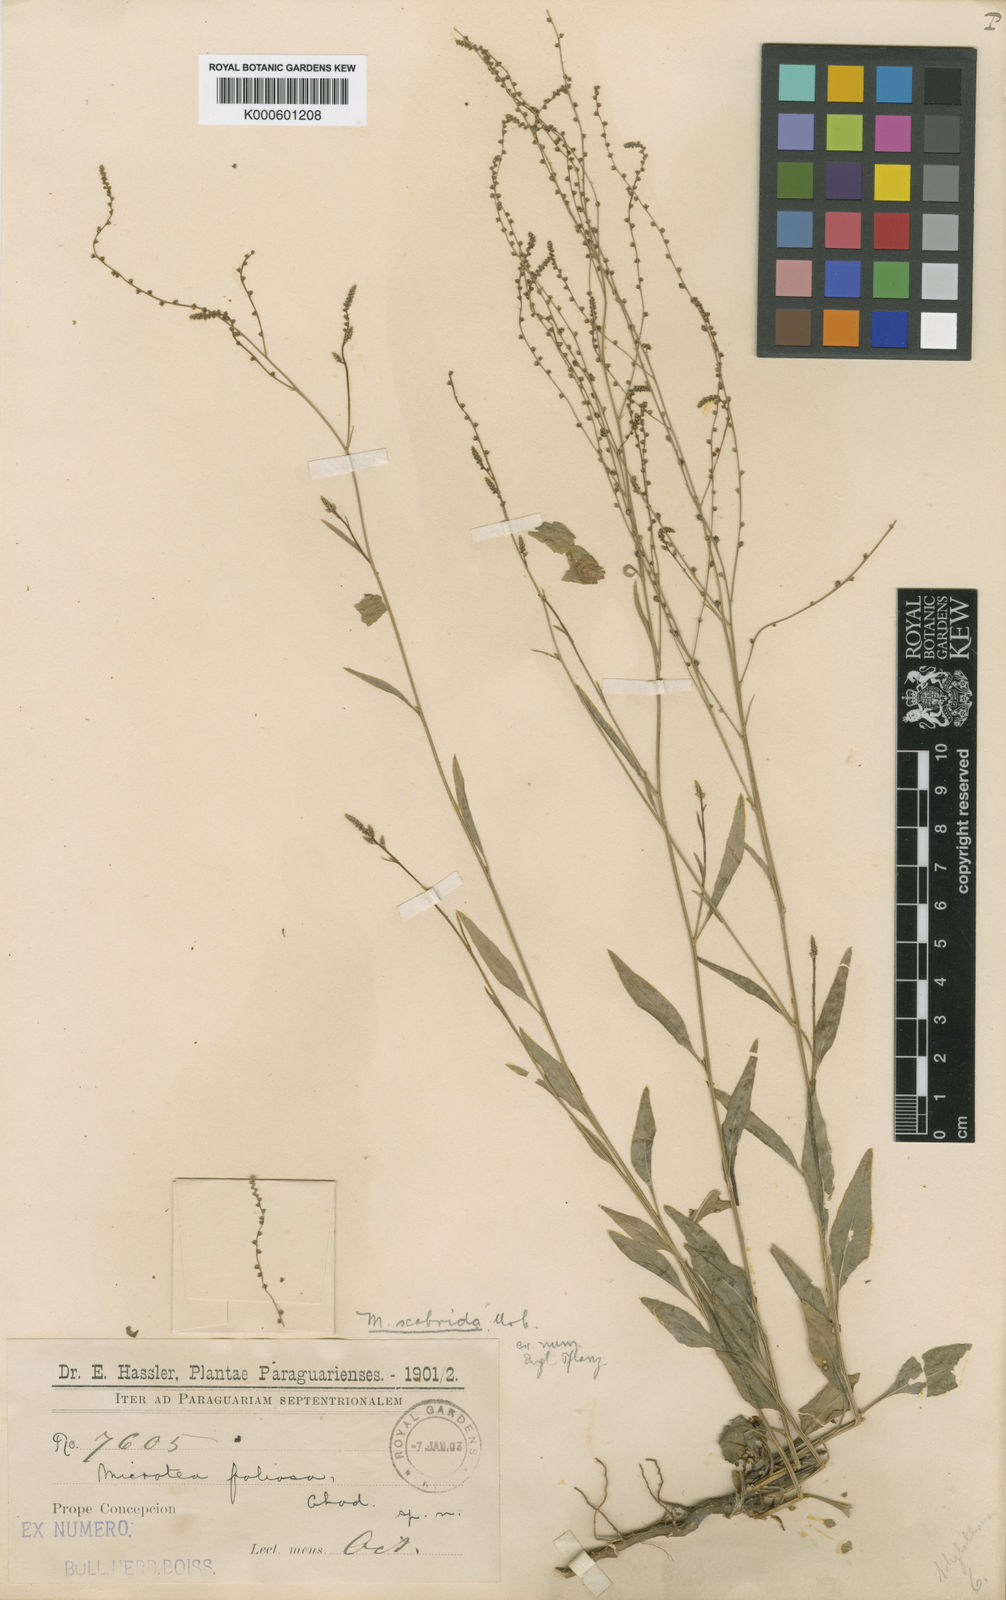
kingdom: Plantae
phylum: Tracheophyta
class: Magnoliopsida
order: Caryophyllales
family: Microteaceae
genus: Microtea
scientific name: Microtea scabrida
